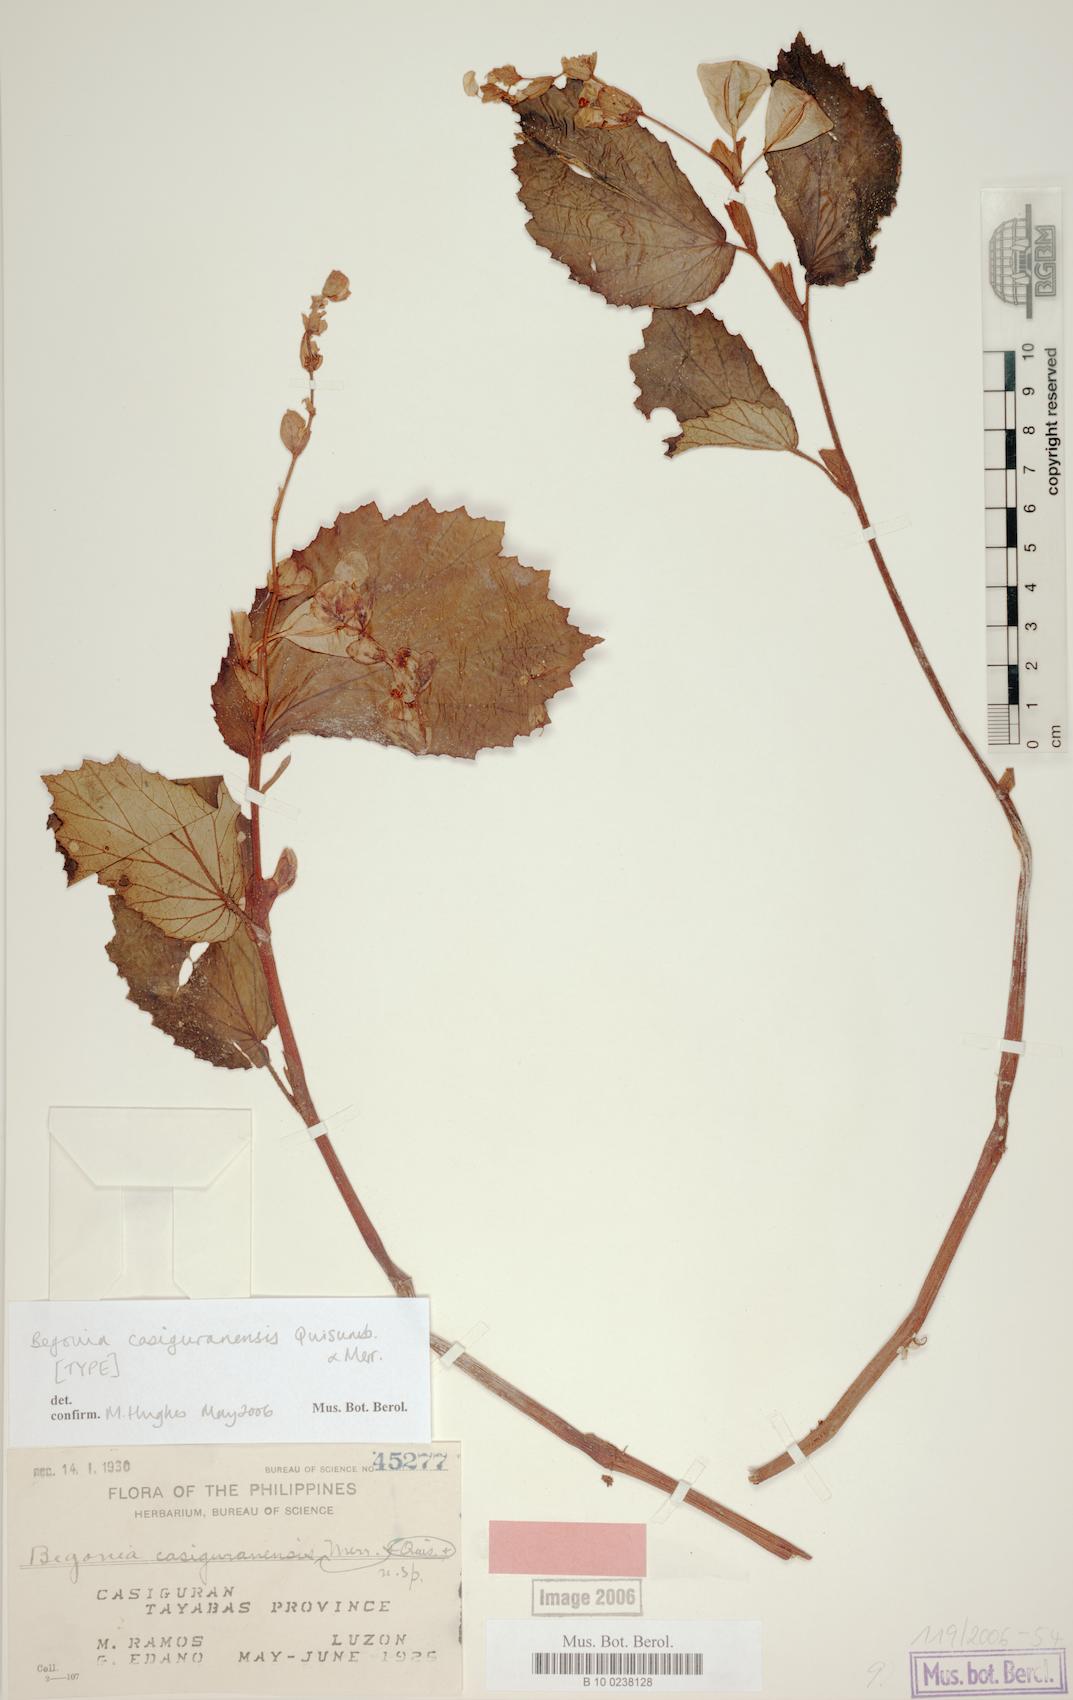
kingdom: Plantae
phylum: Tracheophyta
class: Magnoliopsida
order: Cucurbitales
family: Begoniaceae
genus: Begonia
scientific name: Begonia casiguranensis
